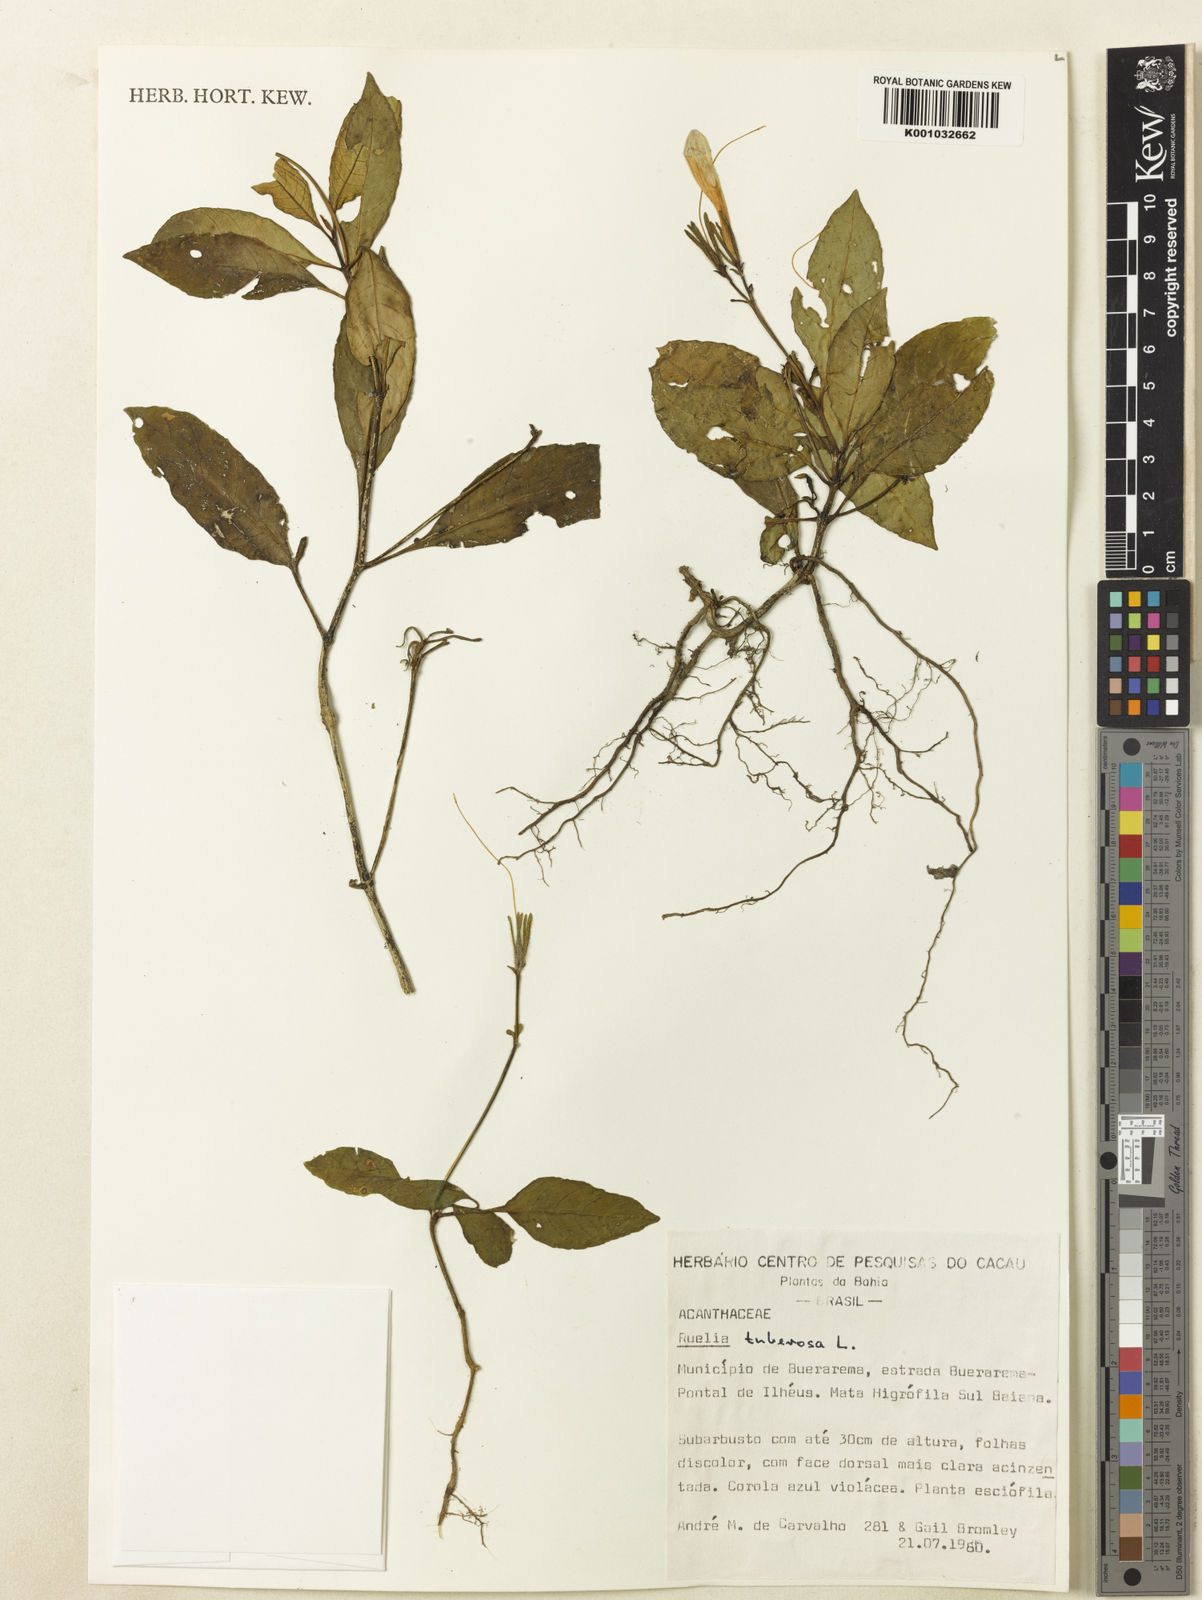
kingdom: Plantae
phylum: Tracheophyta
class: Magnoliopsida
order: Lamiales
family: Acanthaceae
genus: Ruellia
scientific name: Ruellia tuberosa
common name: Devil's bit
